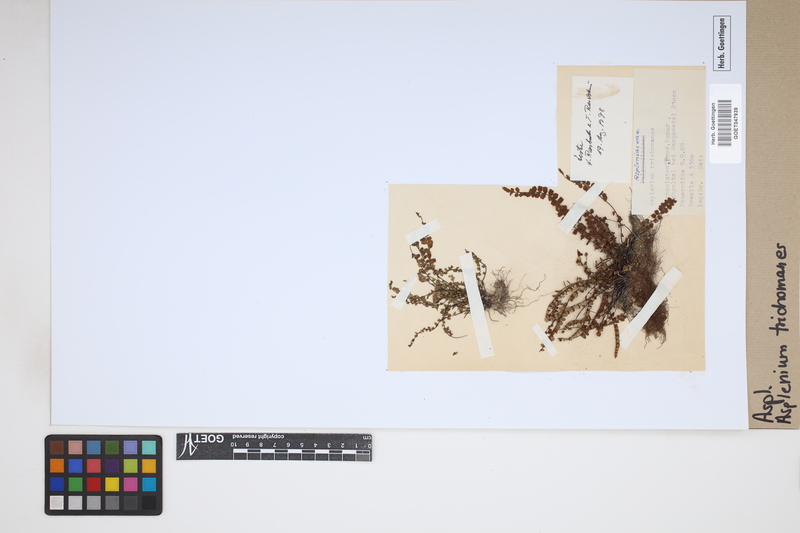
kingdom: Plantae
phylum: Tracheophyta
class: Polypodiopsida
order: Polypodiales
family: Aspleniaceae
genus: Asplenium
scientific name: Asplenium trichomanes
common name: Maidenhair spleenwort
